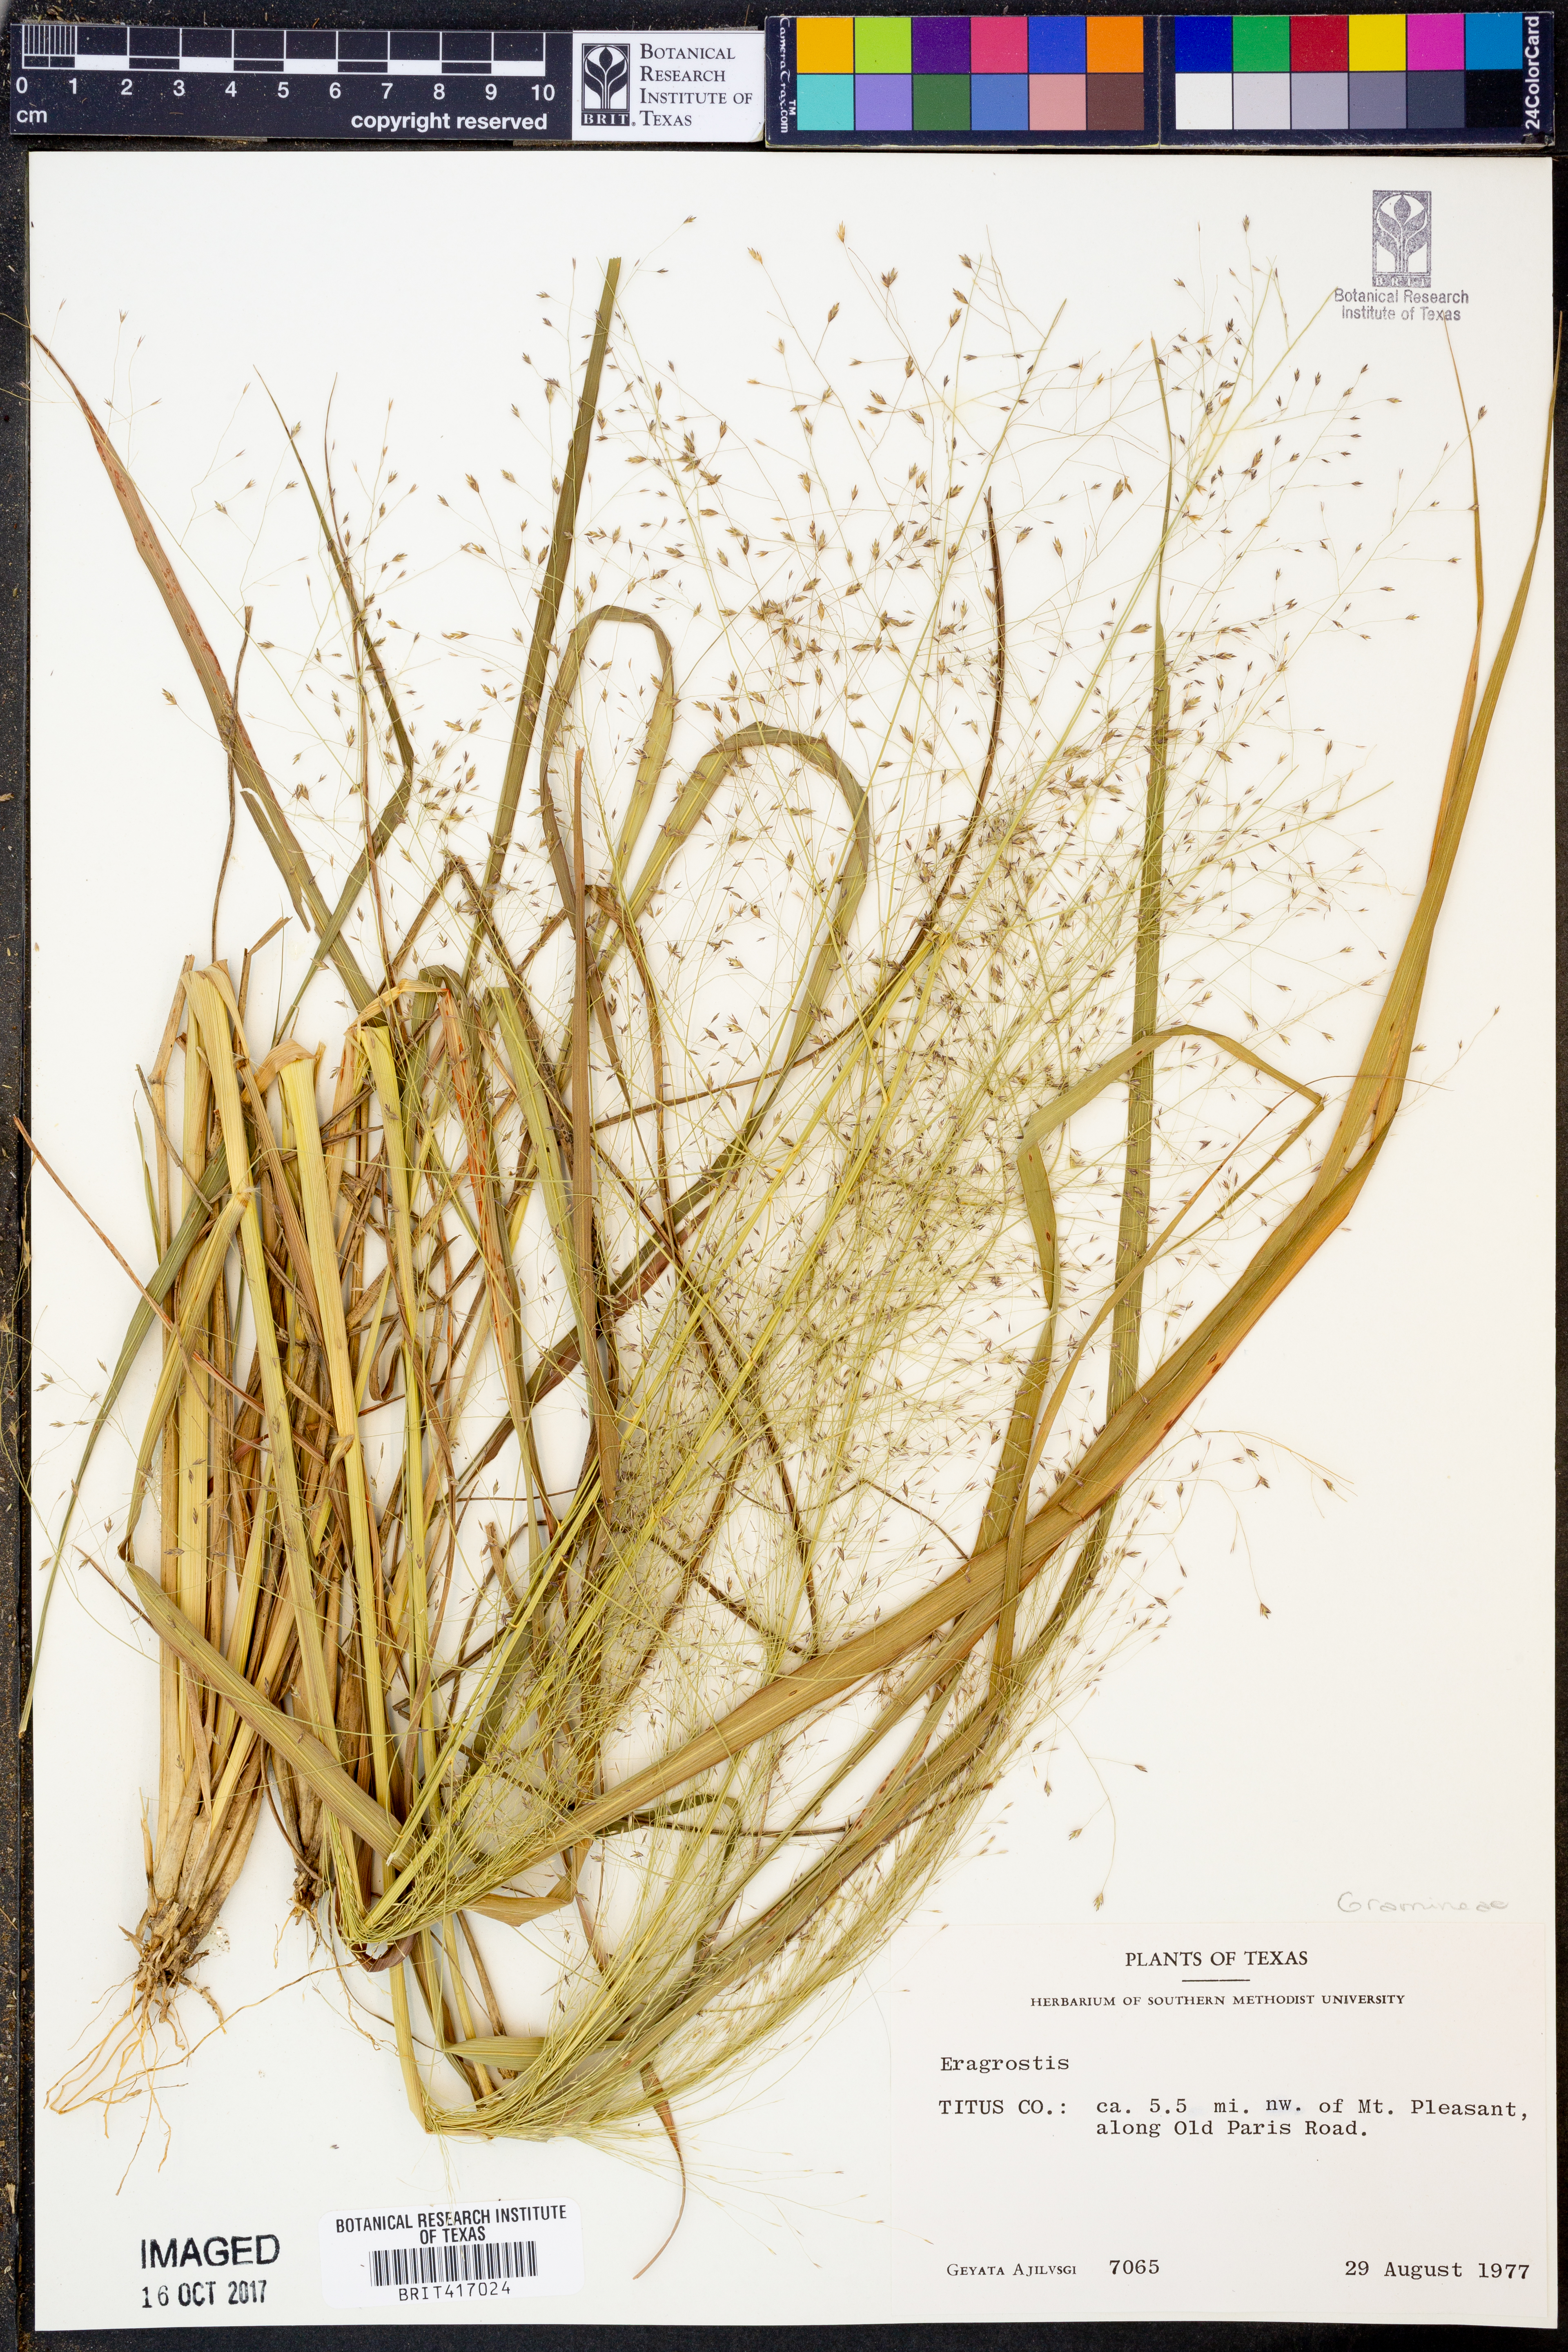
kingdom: Plantae
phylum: Tracheophyta
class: Liliopsida
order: Poales
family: Poaceae
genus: Eragrostis
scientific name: Eragrostis
